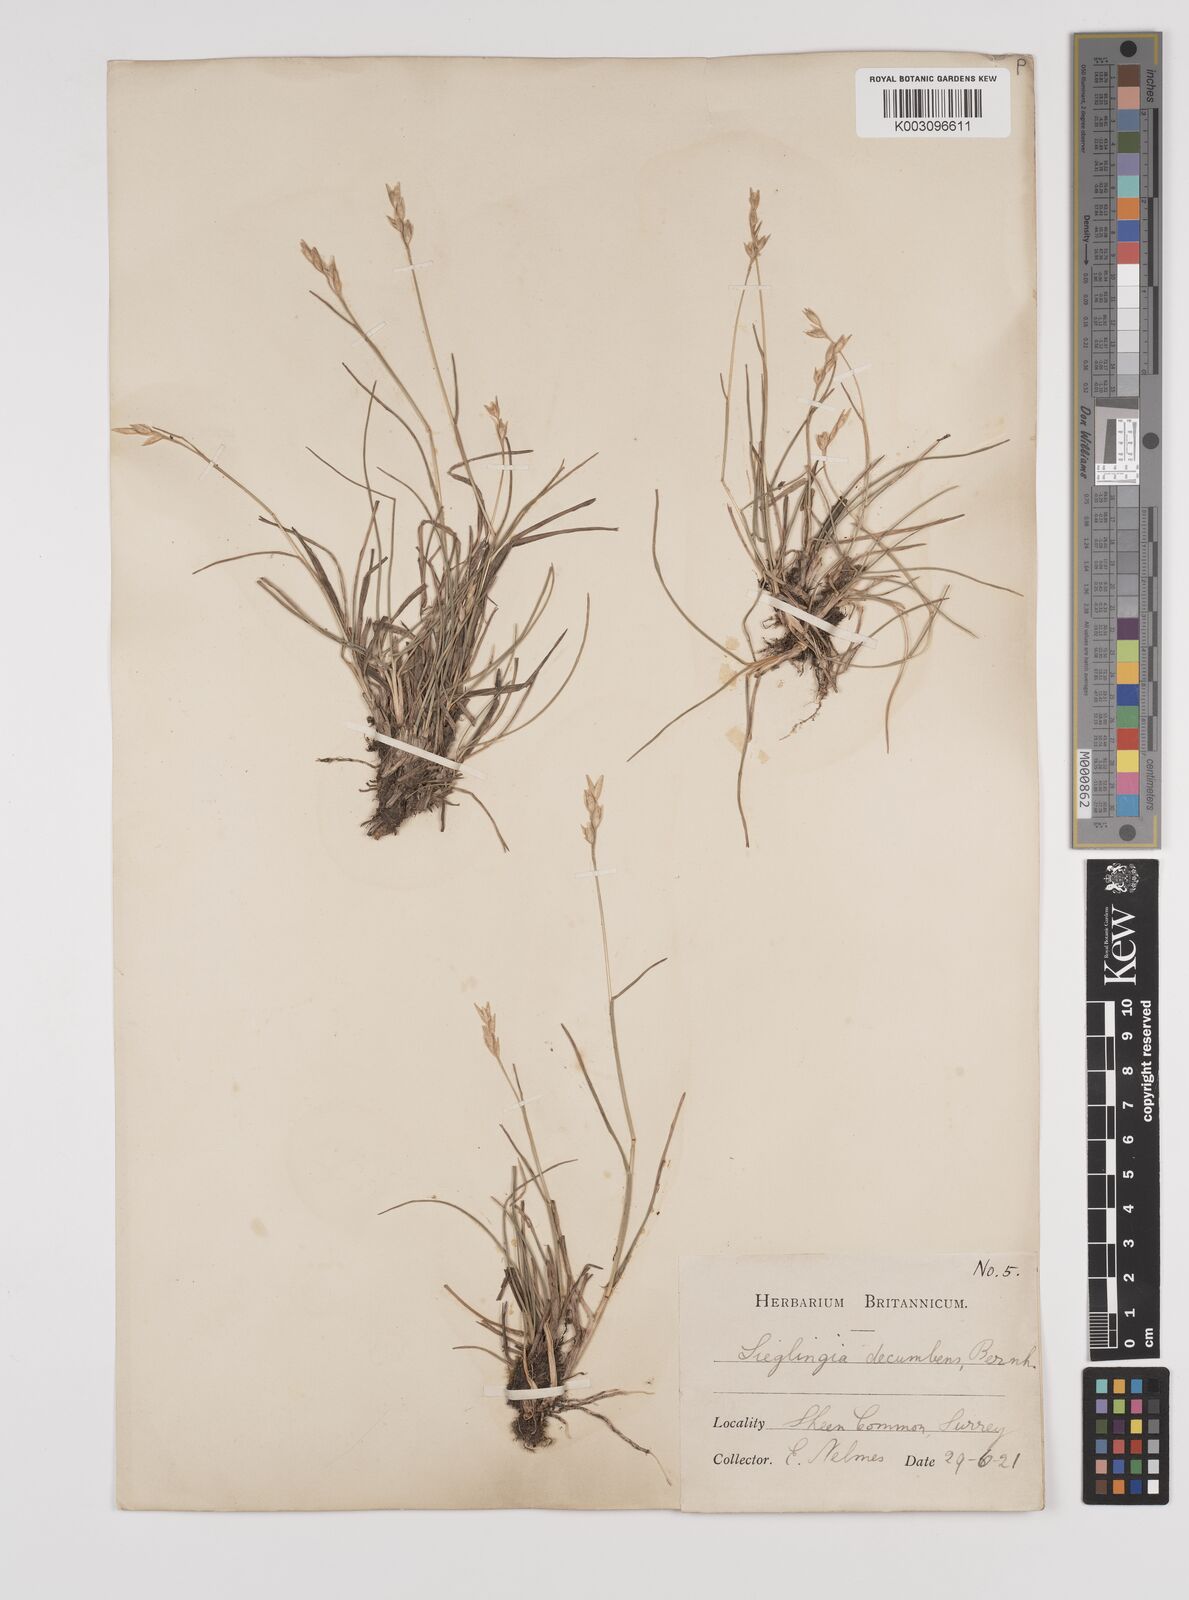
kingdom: Plantae
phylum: Tracheophyta
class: Liliopsida
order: Poales
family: Poaceae
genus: Danthonia
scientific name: Danthonia decumbens
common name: Common heathgrass
